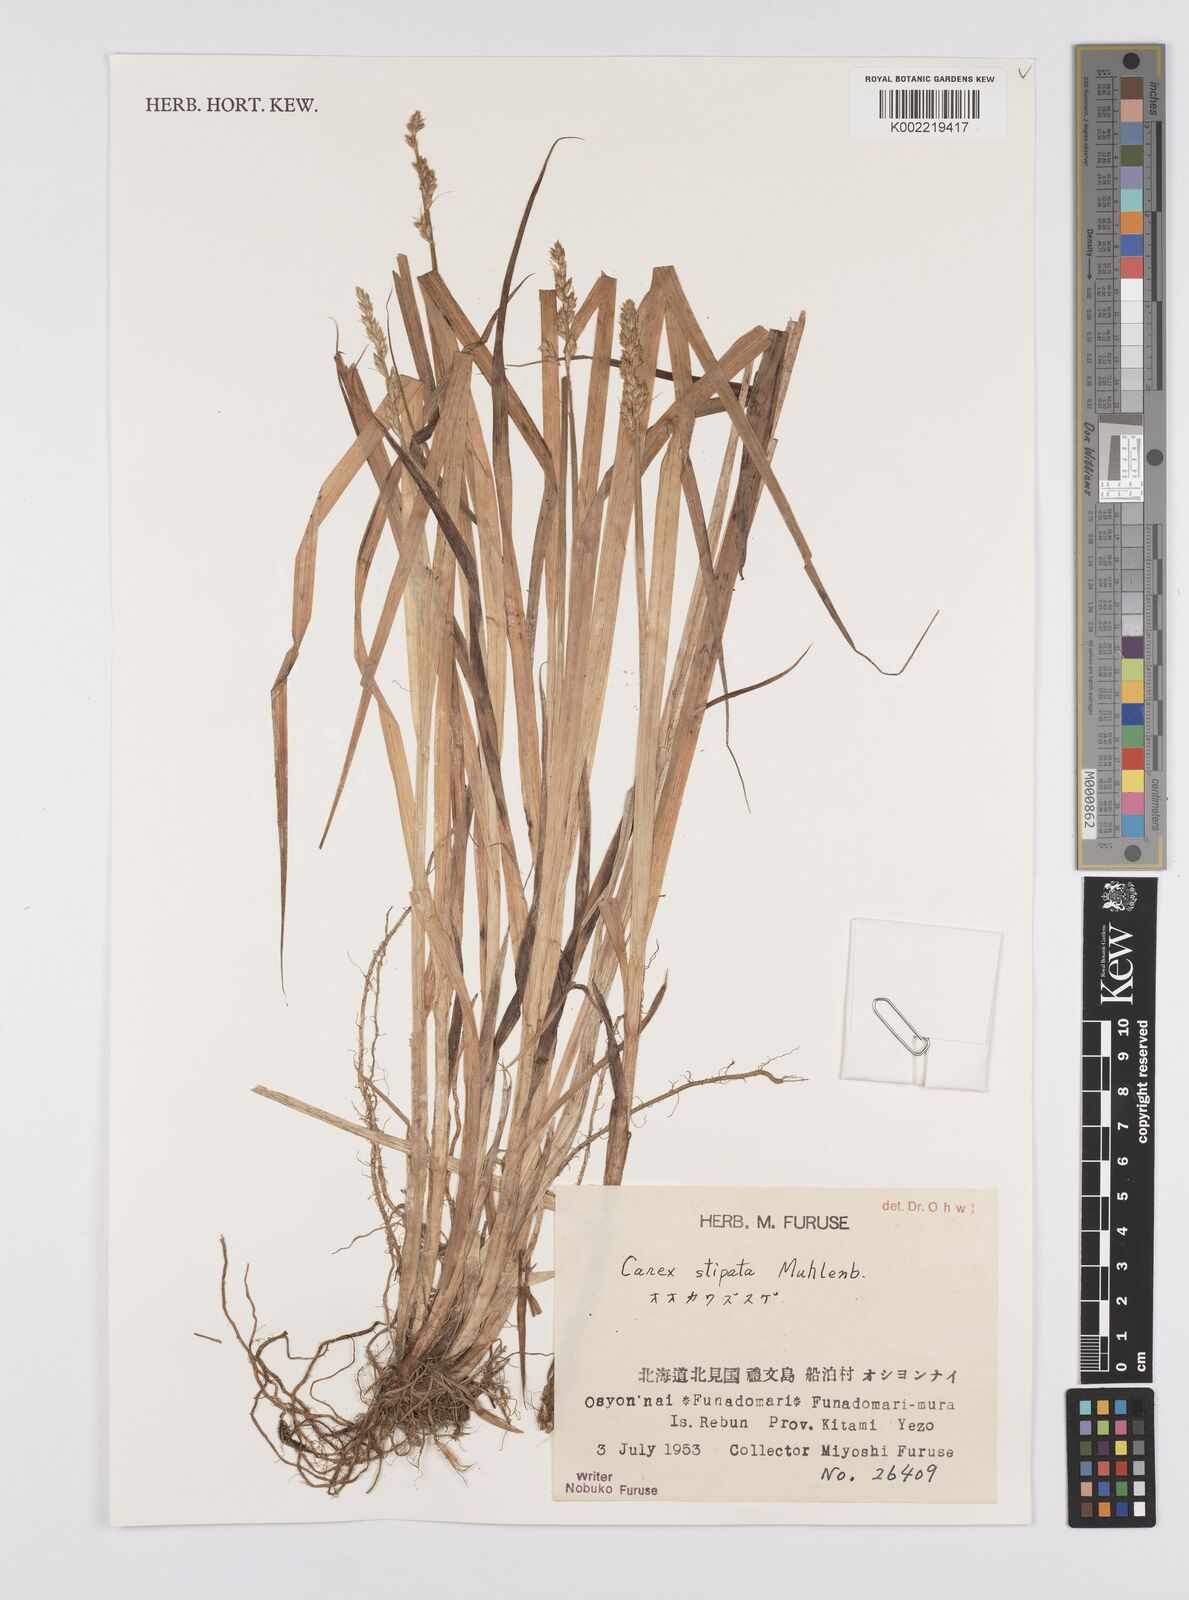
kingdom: Plantae
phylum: Tracheophyta
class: Liliopsida
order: Poales
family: Cyperaceae
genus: Carex
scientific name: Carex chordorrhiza
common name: String sedge
